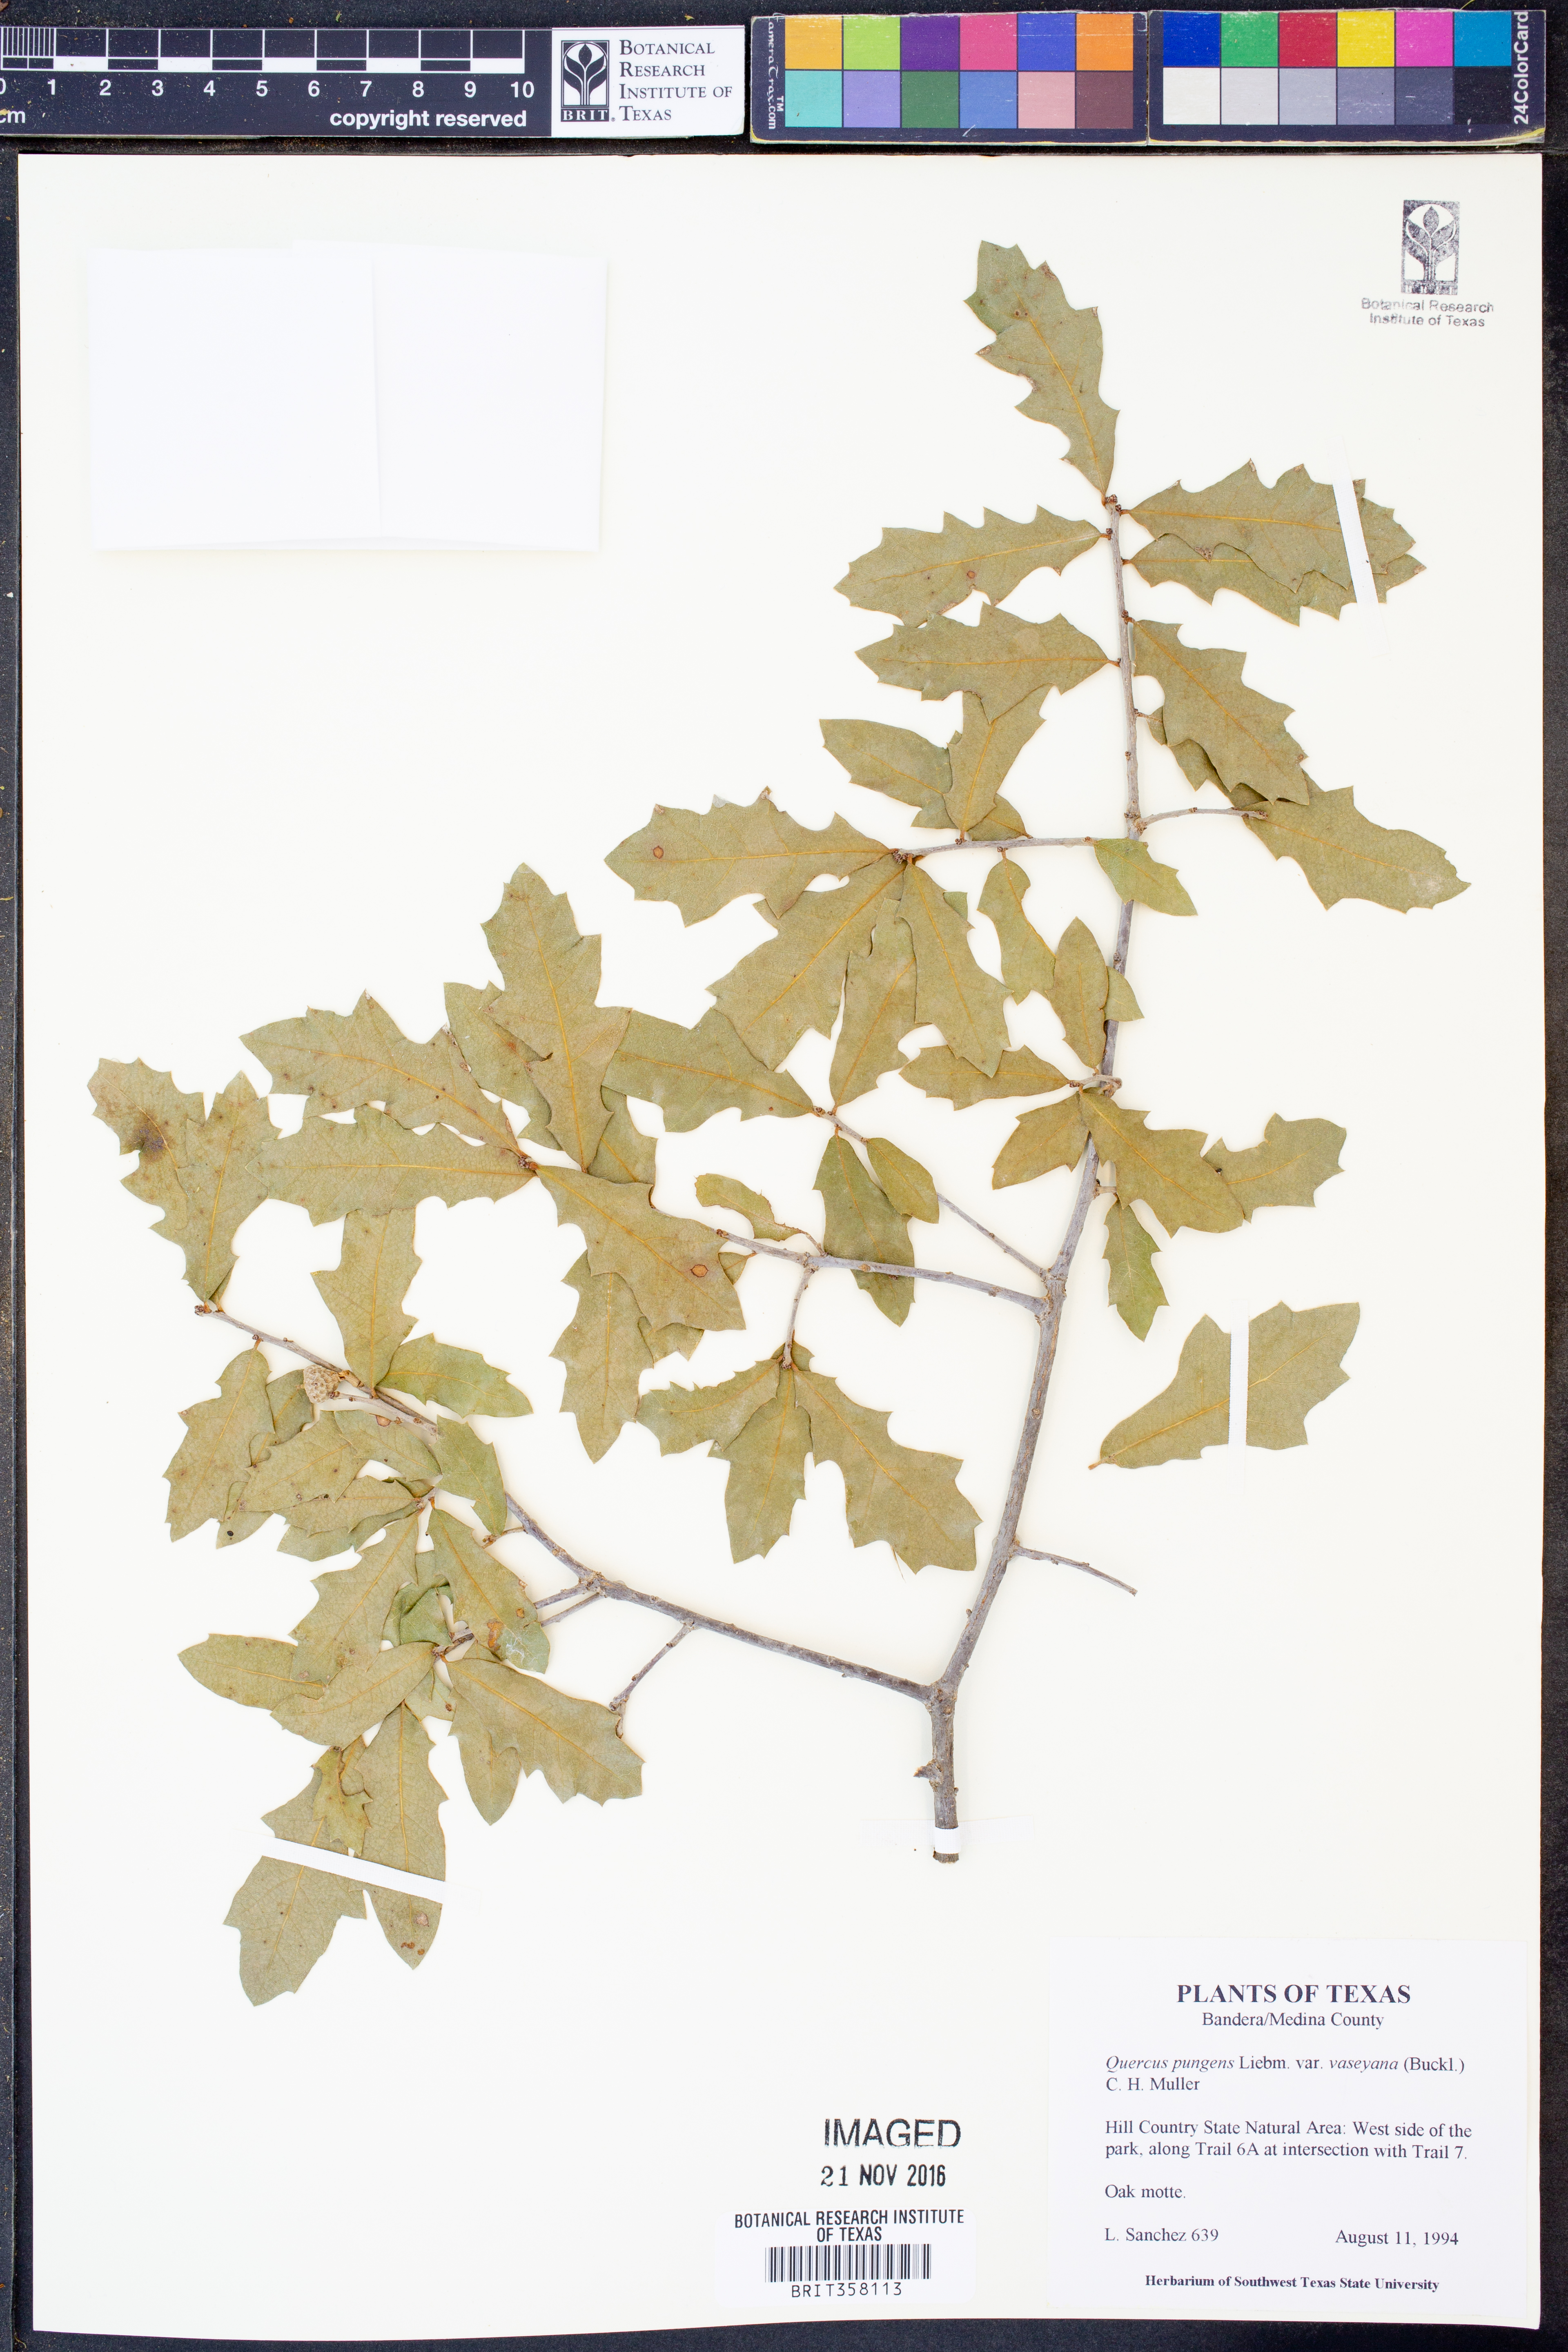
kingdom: Plantae
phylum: Tracheophyta
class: Magnoliopsida
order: Fagales
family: Fagaceae
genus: Quercus
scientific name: Quercus vaseyana
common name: Sandpaper oak
